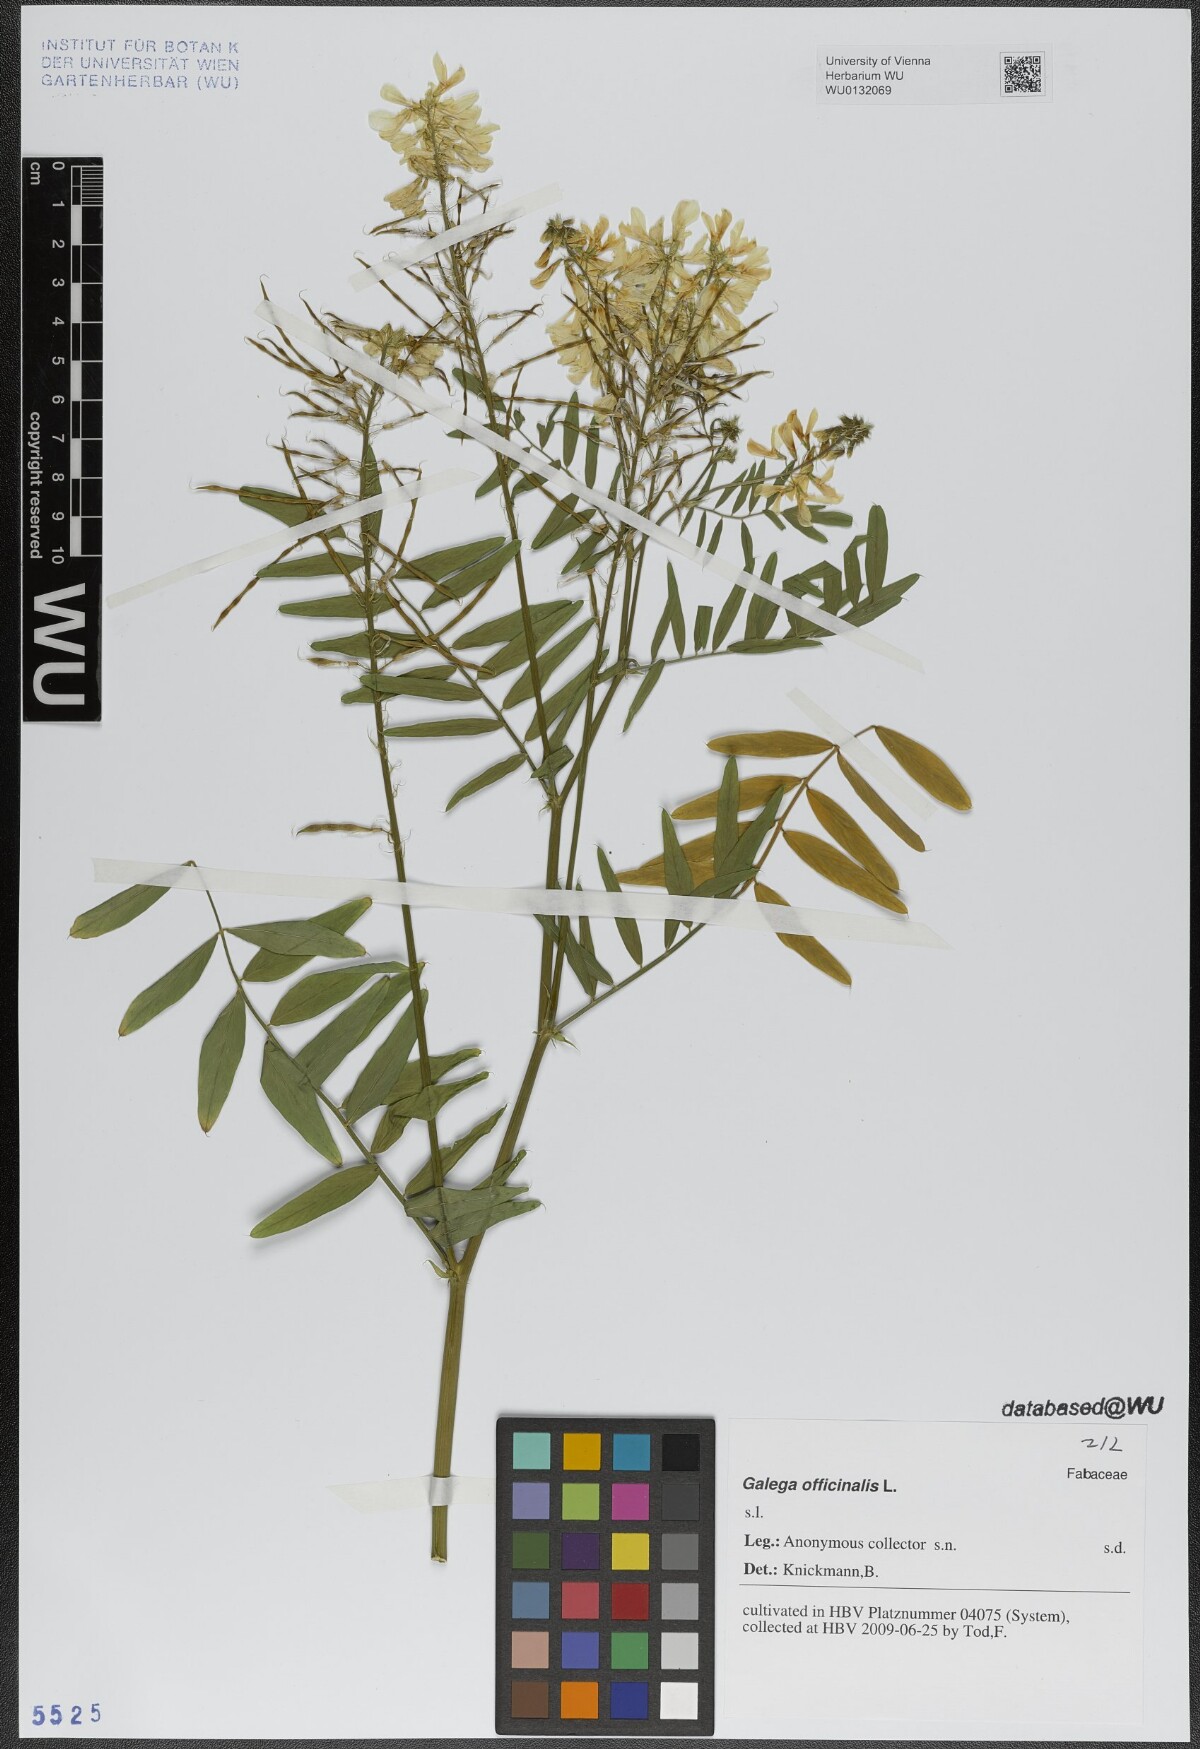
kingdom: Plantae
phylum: Tracheophyta
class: Magnoliopsida
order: Fabales
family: Fabaceae
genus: Galega
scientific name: Galega officinalis
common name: Goat's-rue
